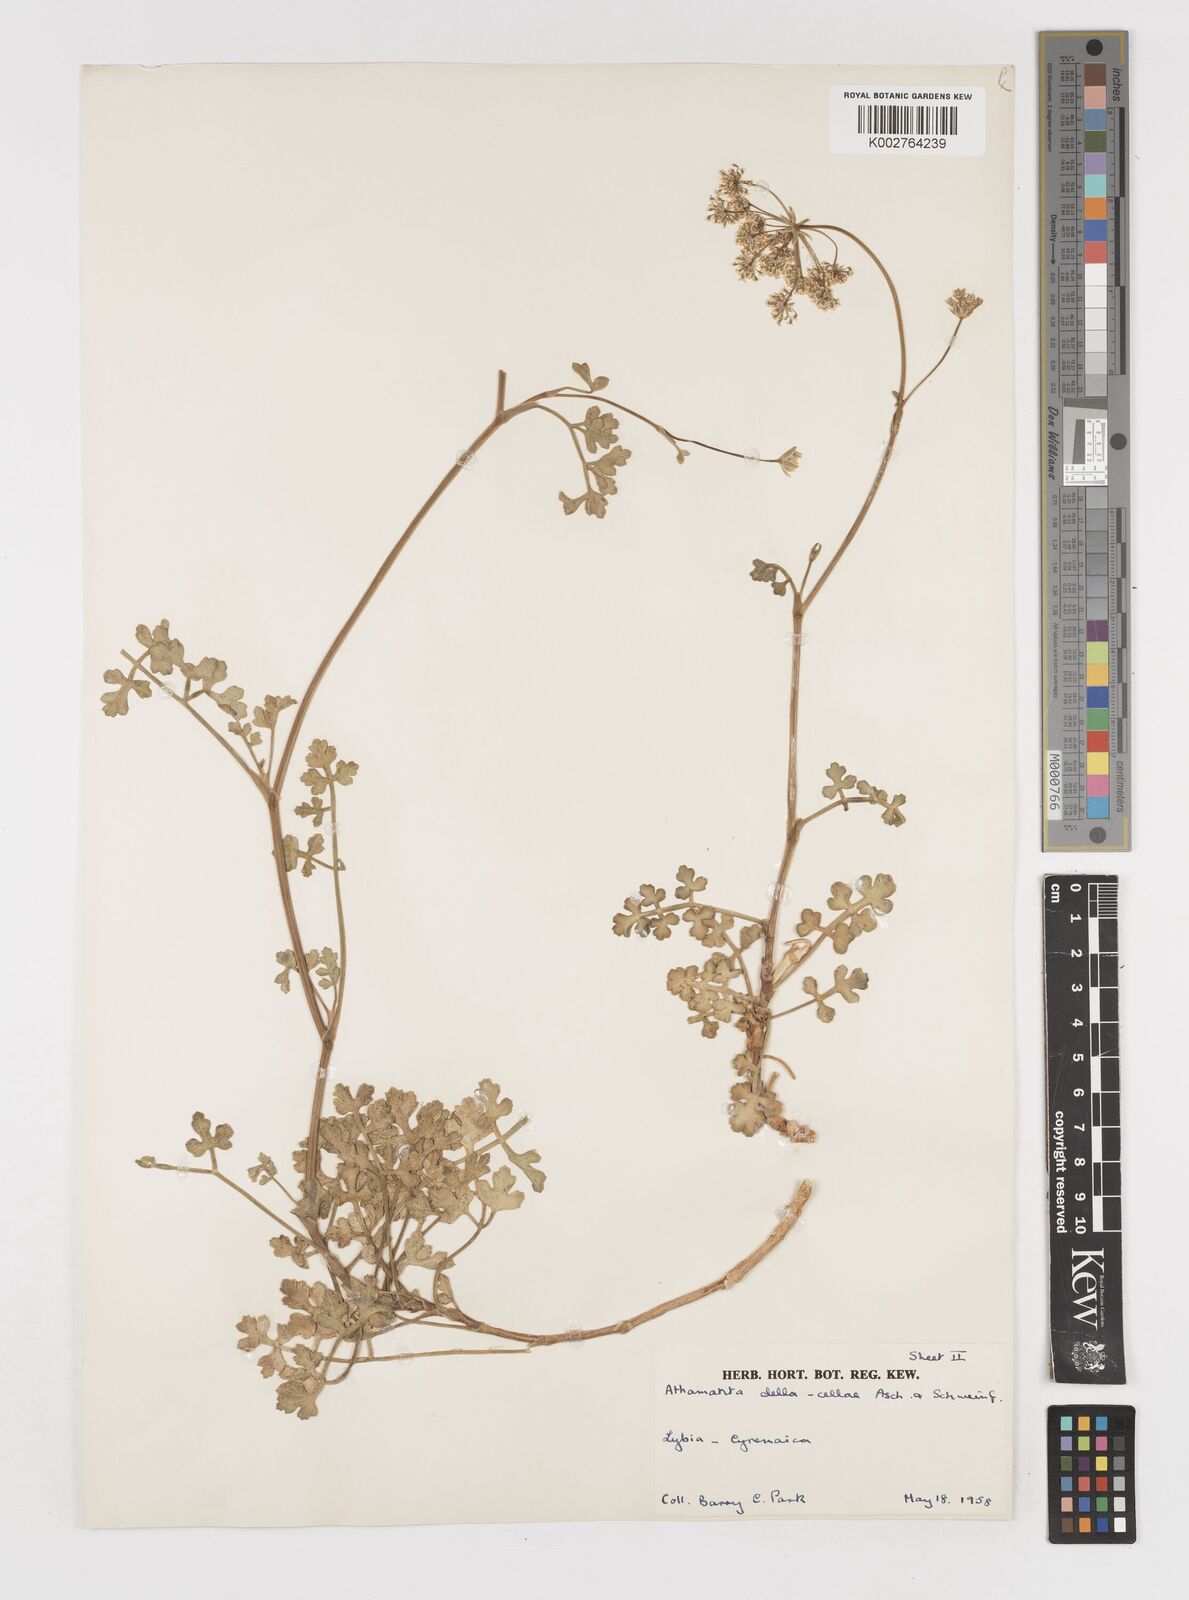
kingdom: Plantae
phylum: Tracheophyta
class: Magnoliopsida
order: Apiales
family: Apiaceae
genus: Daucus
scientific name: Daucus della-cellae
